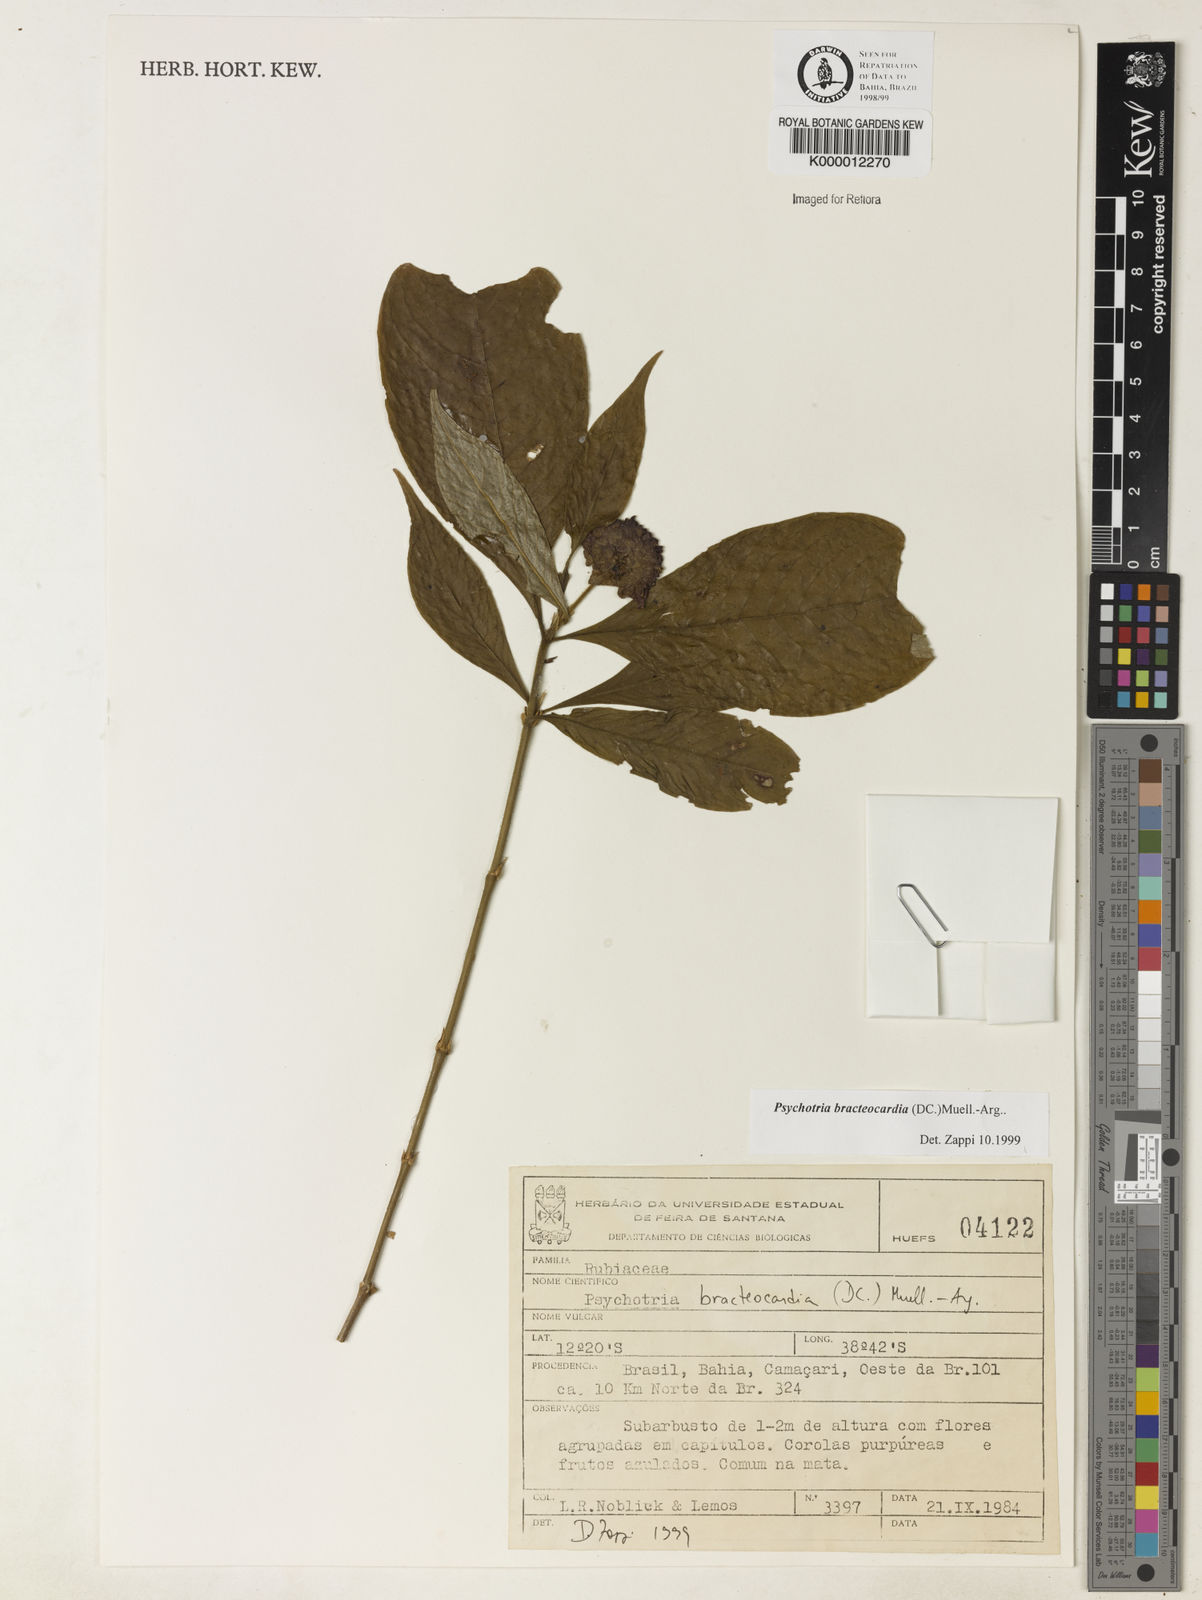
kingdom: Plantae
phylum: Tracheophyta
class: Magnoliopsida
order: Gentianales
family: Rubiaceae
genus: Psychotria
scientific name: Psychotria
